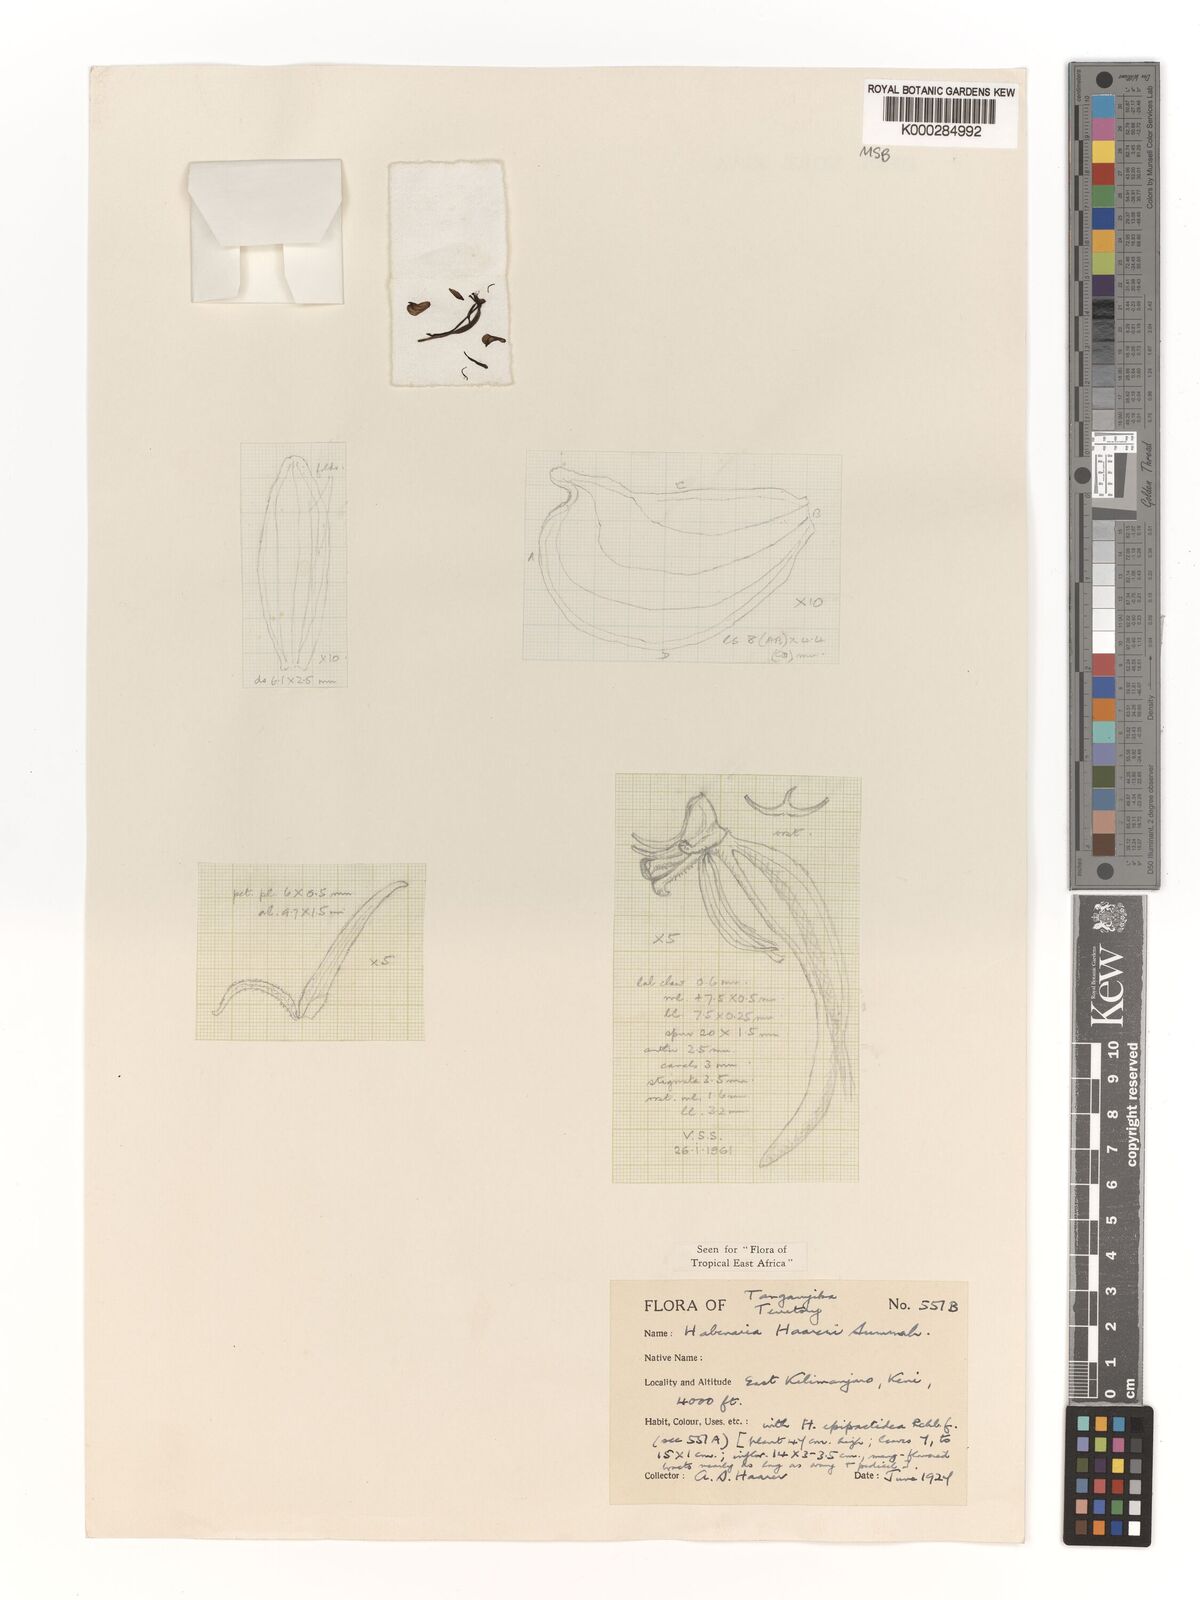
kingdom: Plantae
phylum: Tracheophyta
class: Liliopsida
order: Asparagales
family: Orchidaceae
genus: Habenaria
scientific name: Habenaria haareri
